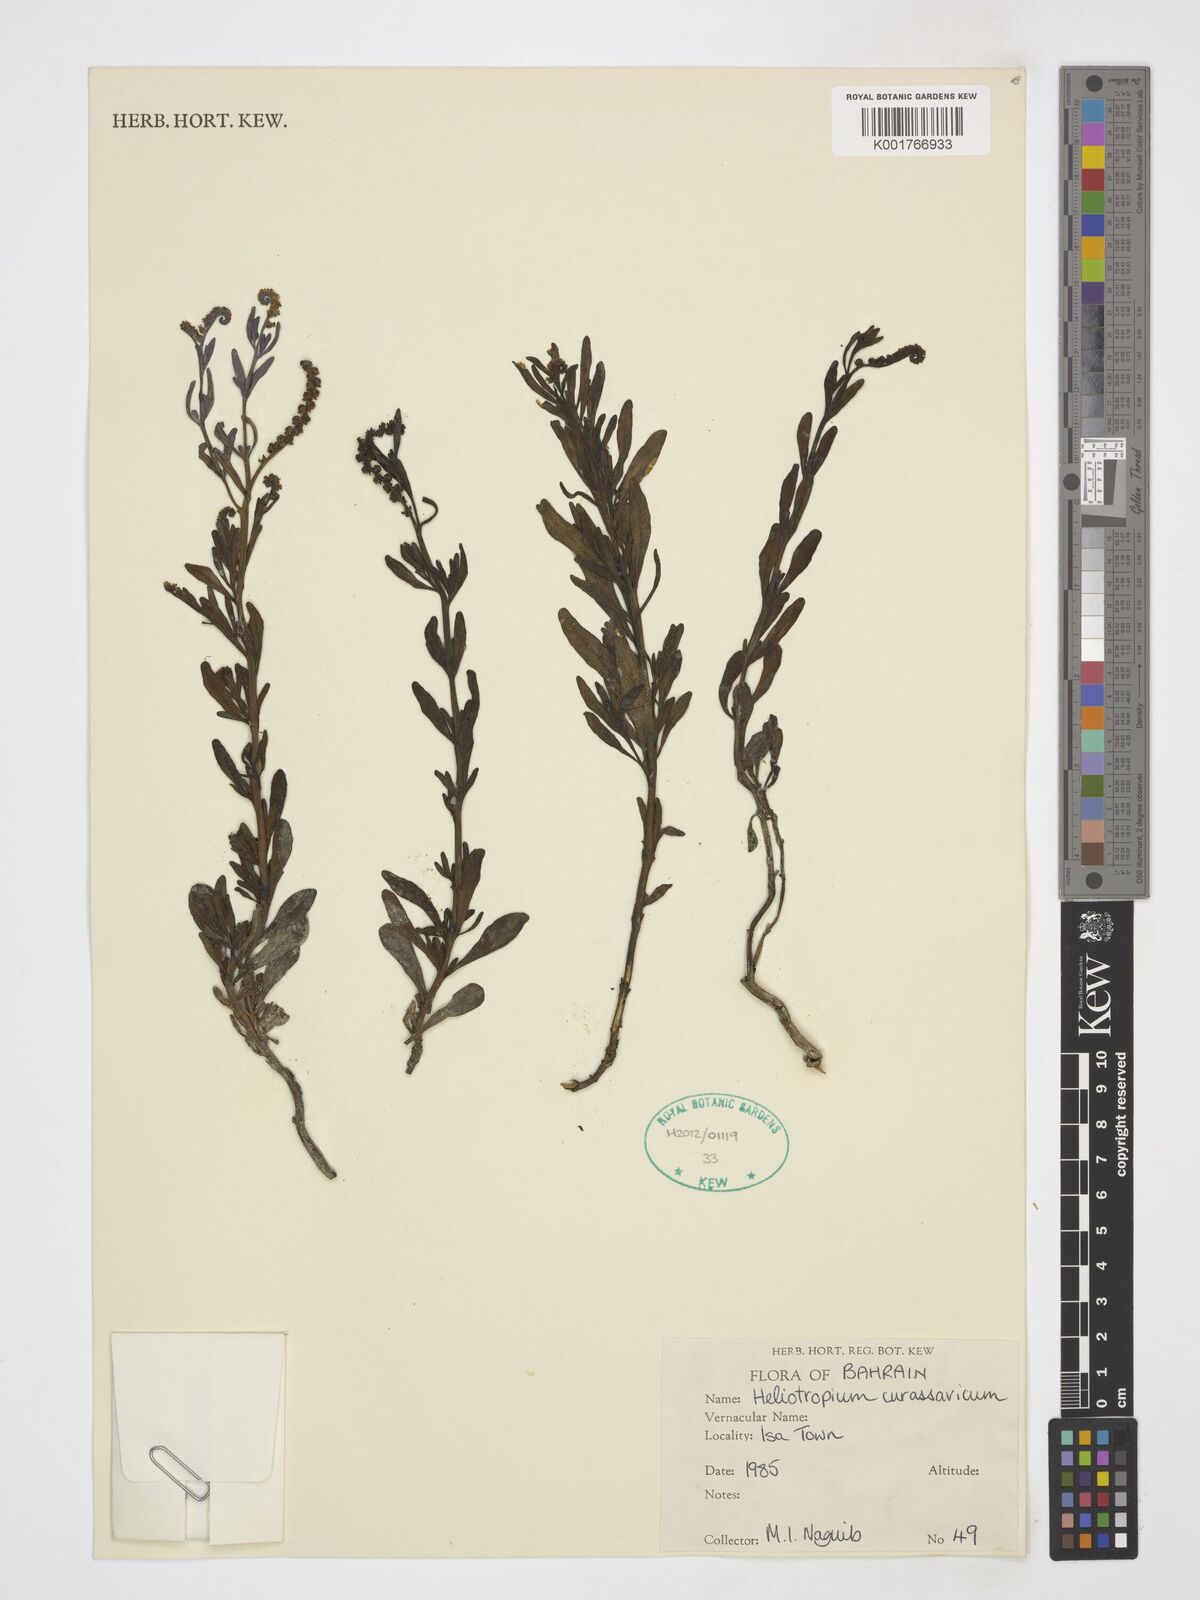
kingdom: Plantae
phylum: Tracheophyta
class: Magnoliopsida
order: Boraginales
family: Heliotropiaceae
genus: Heliotropium
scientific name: Heliotropium curassavicum
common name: Seaside heliotrope
